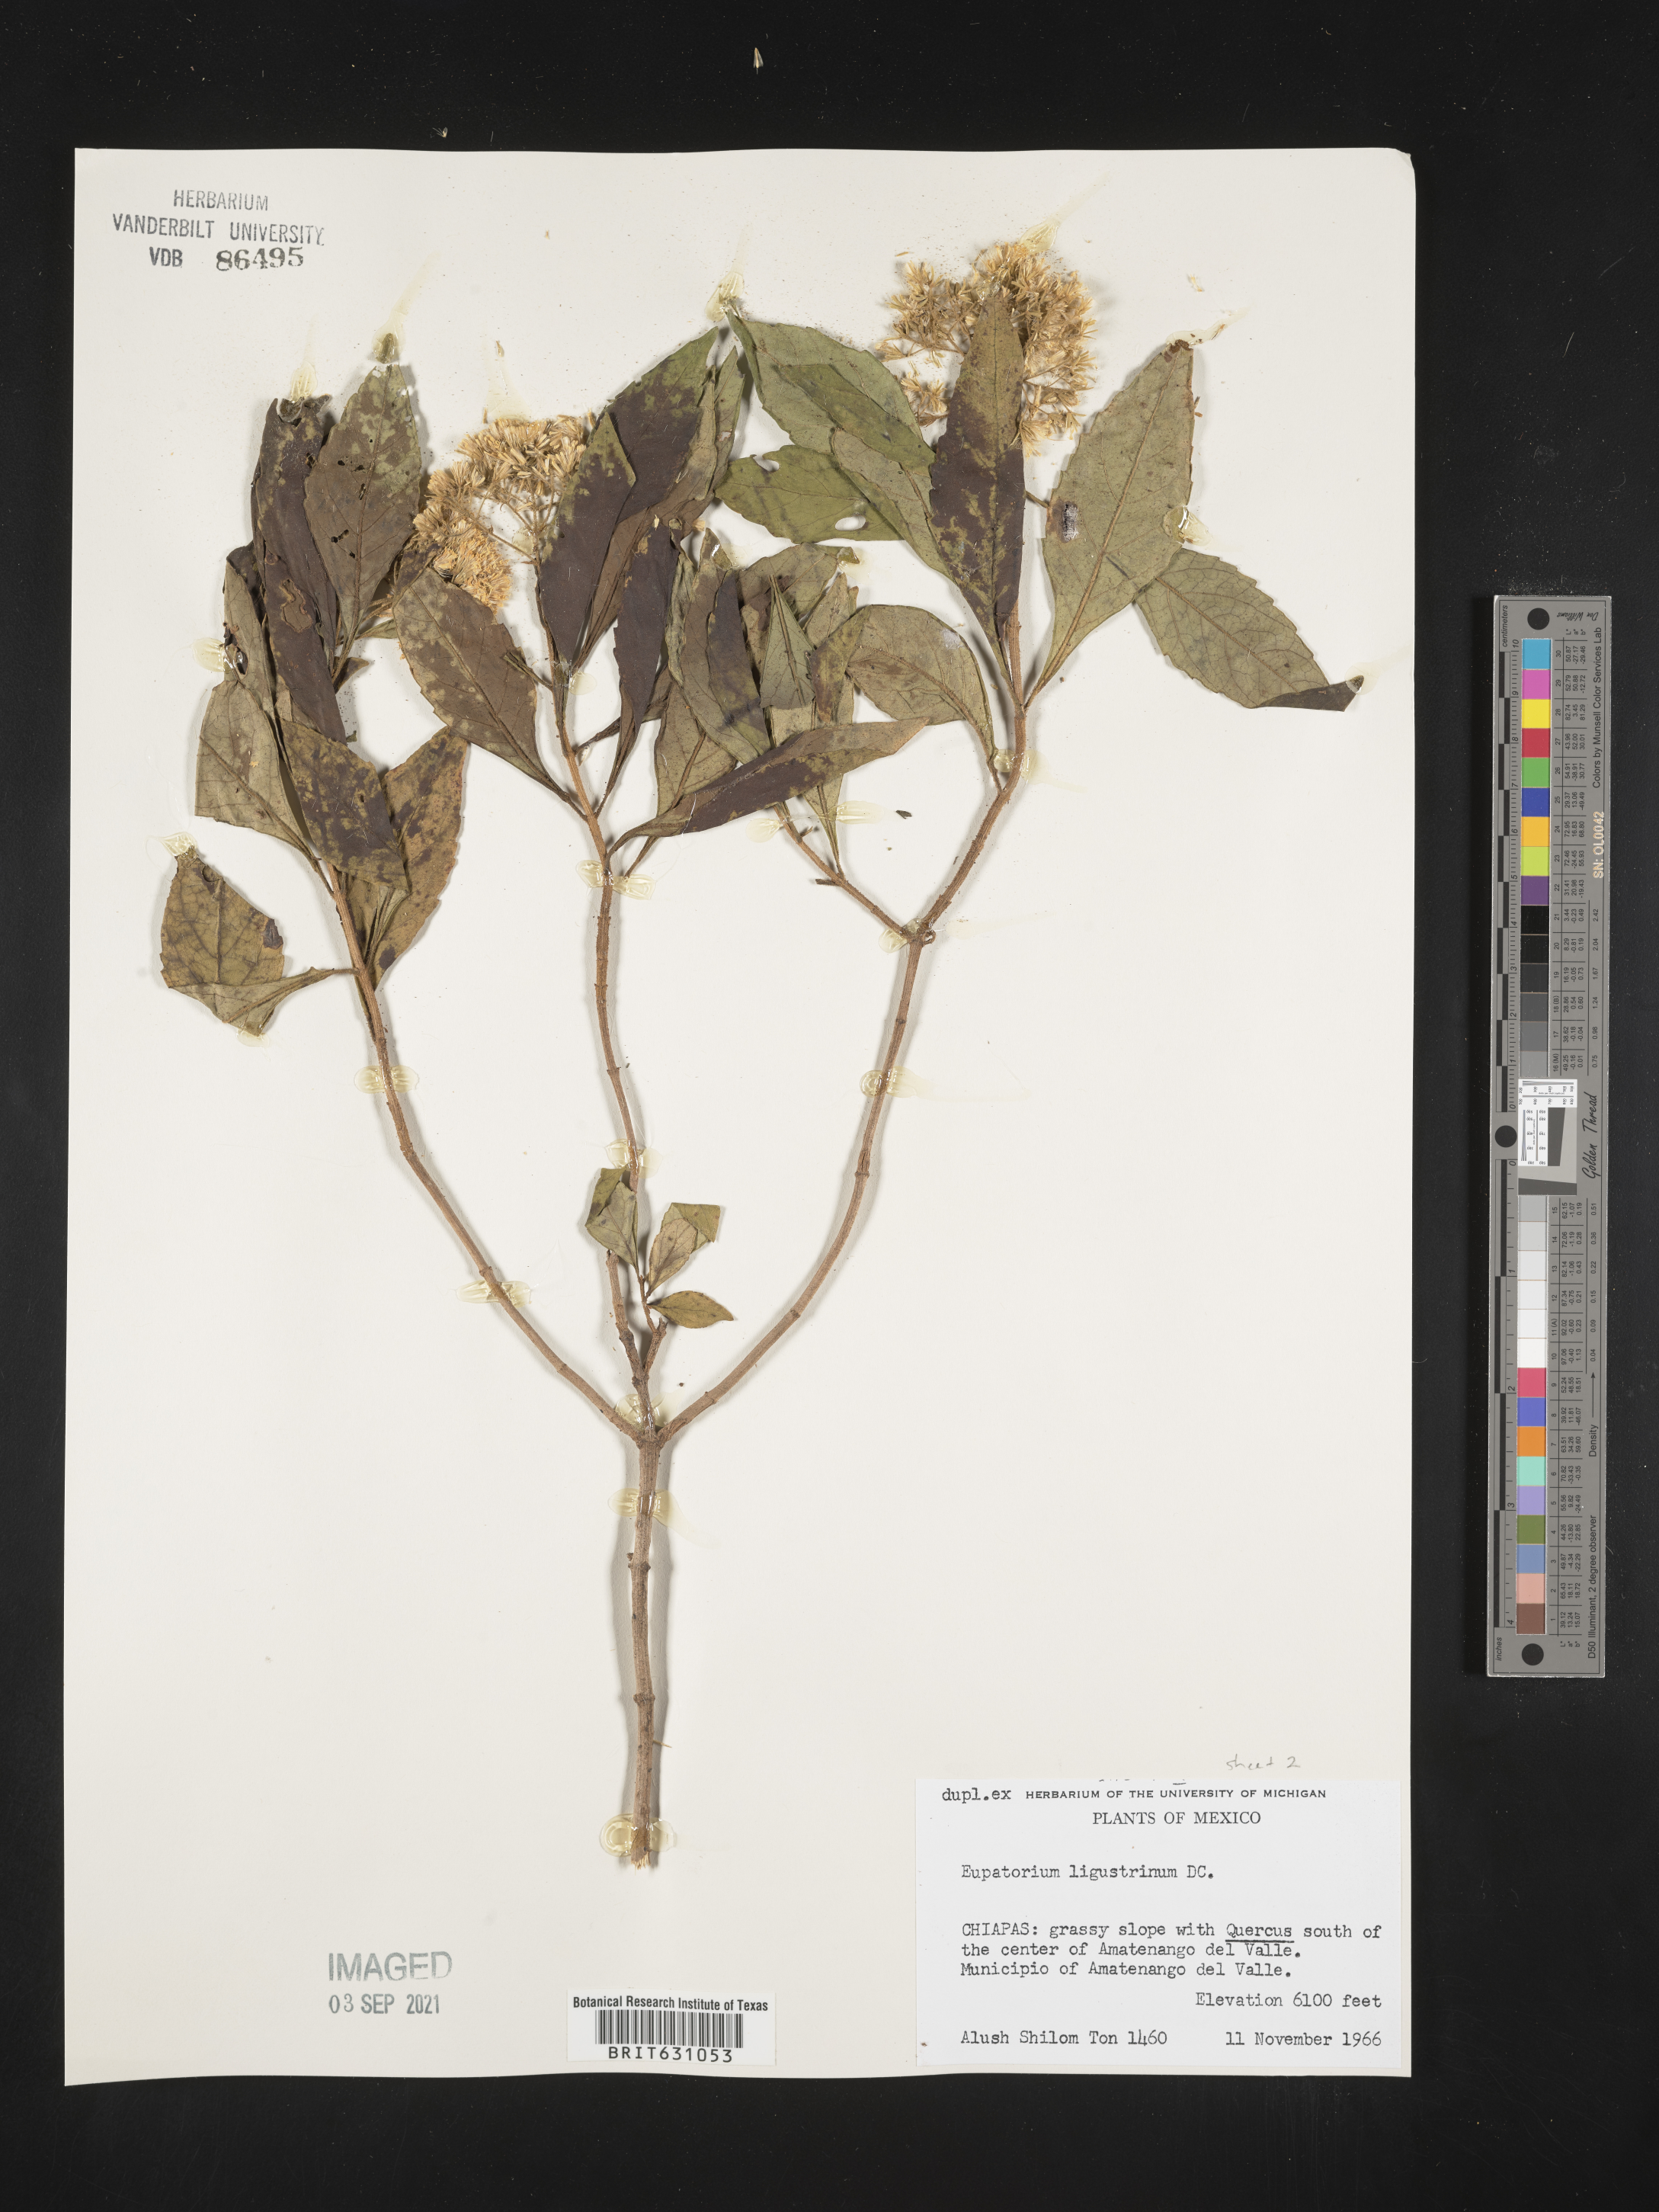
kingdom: Plantae
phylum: Tracheophyta
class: Magnoliopsida
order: Asterales
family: Asteraceae
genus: Eupatorium
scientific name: Eupatorium
